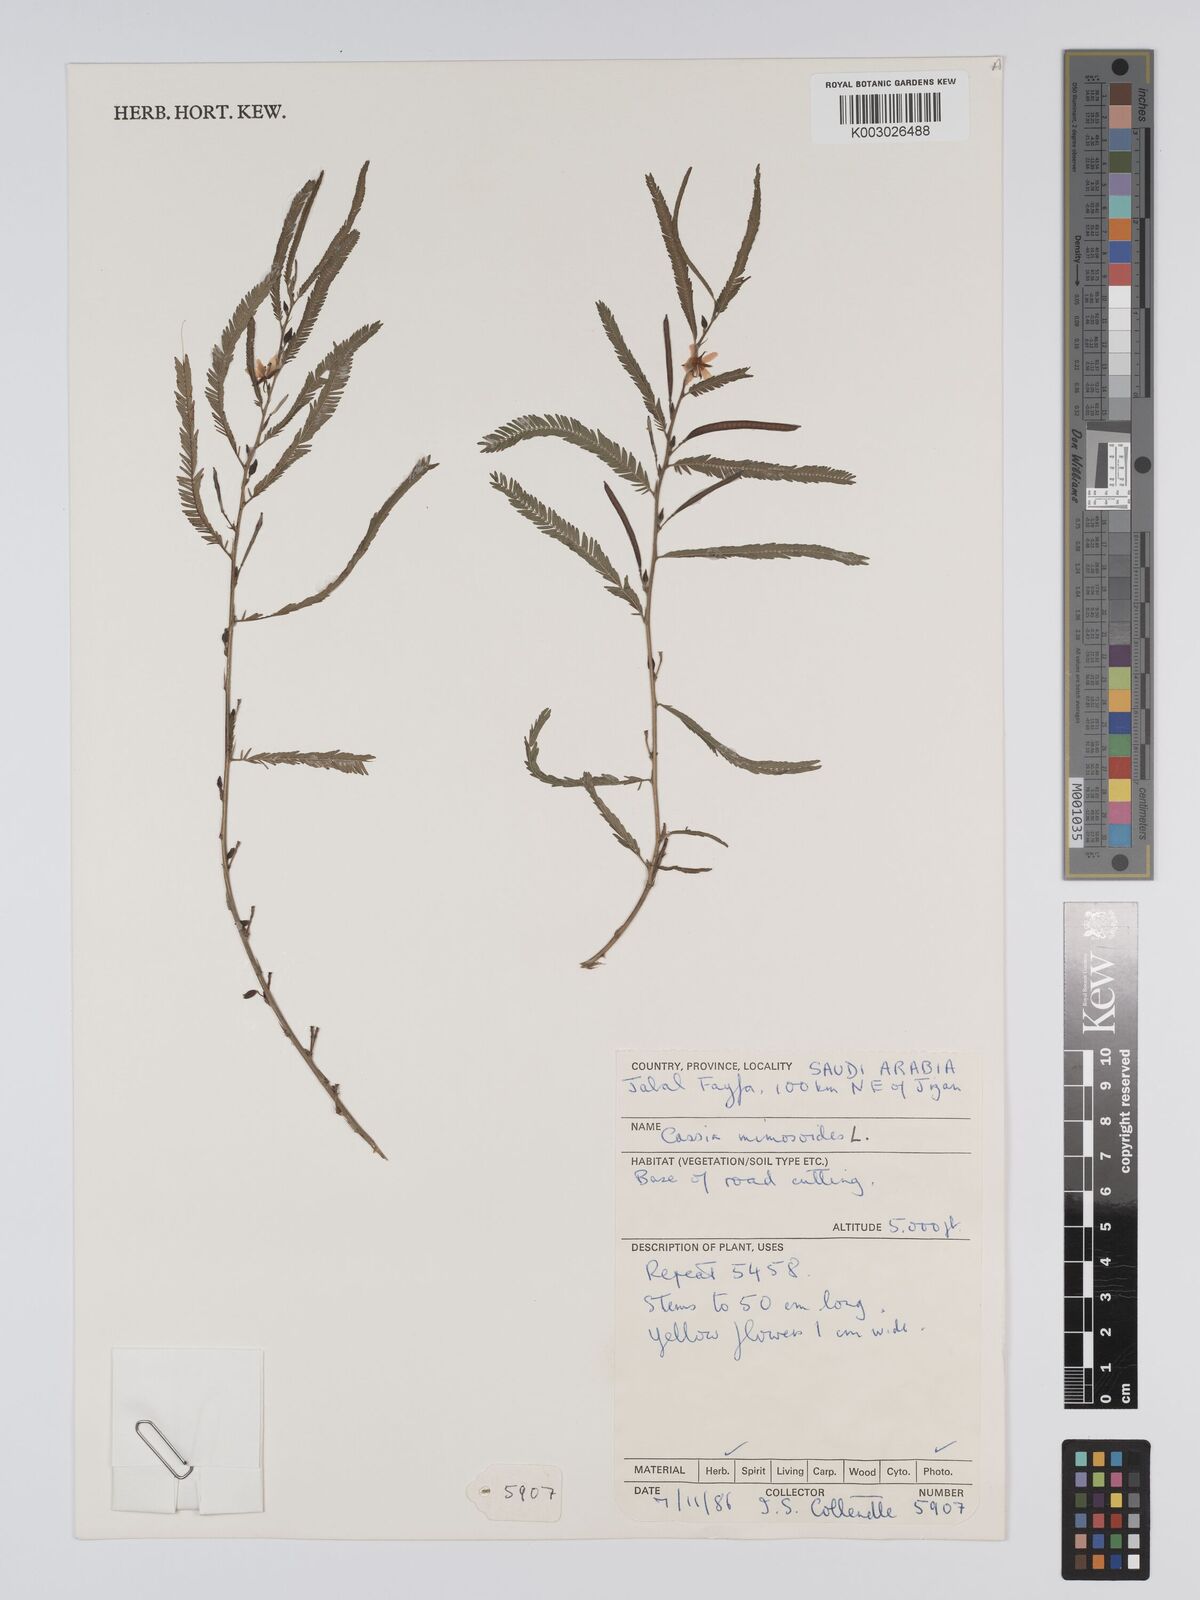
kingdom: Plantae
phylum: Tracheophyta
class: Magnoliopsida
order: Fabales
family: Fabaceae
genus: Chamaecrista
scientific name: Chamaecrista mimosoides
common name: Fish-bone cassia
